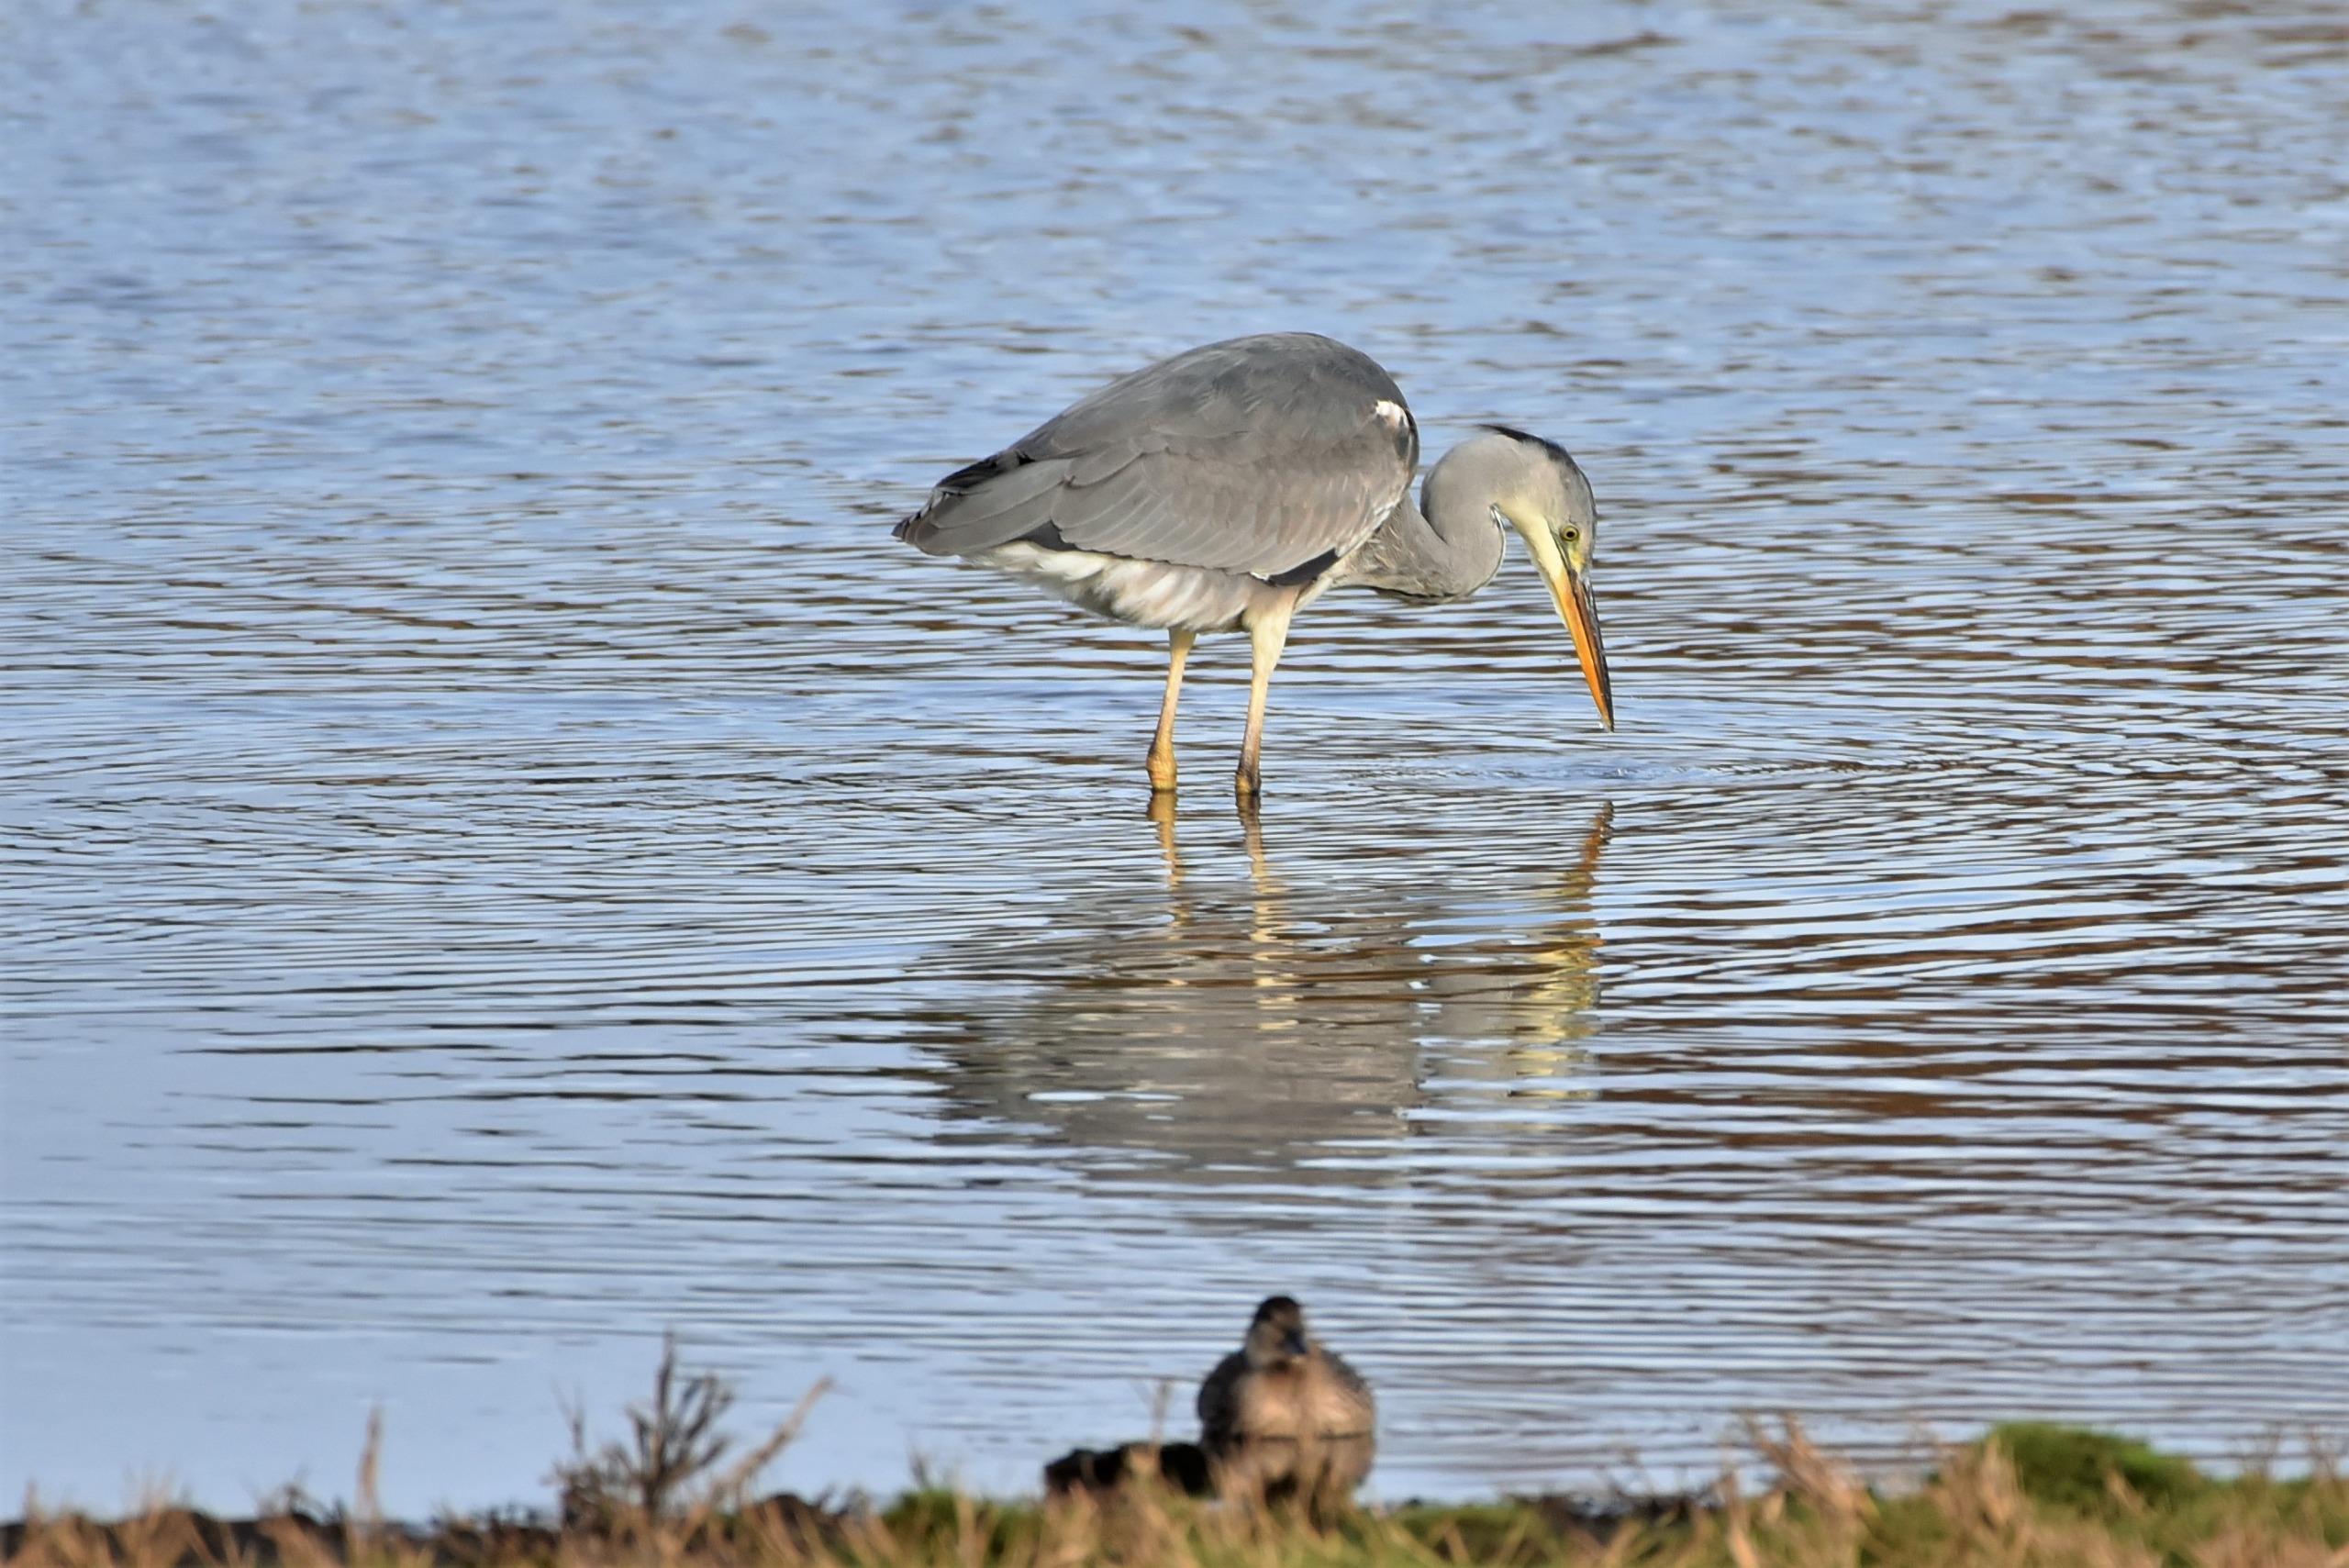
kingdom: Animalia
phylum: Chordata
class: Aves
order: Pelecaniformes
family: Ardeidae
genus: Ardea
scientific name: Ardea cinerea
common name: Fiskehejre
